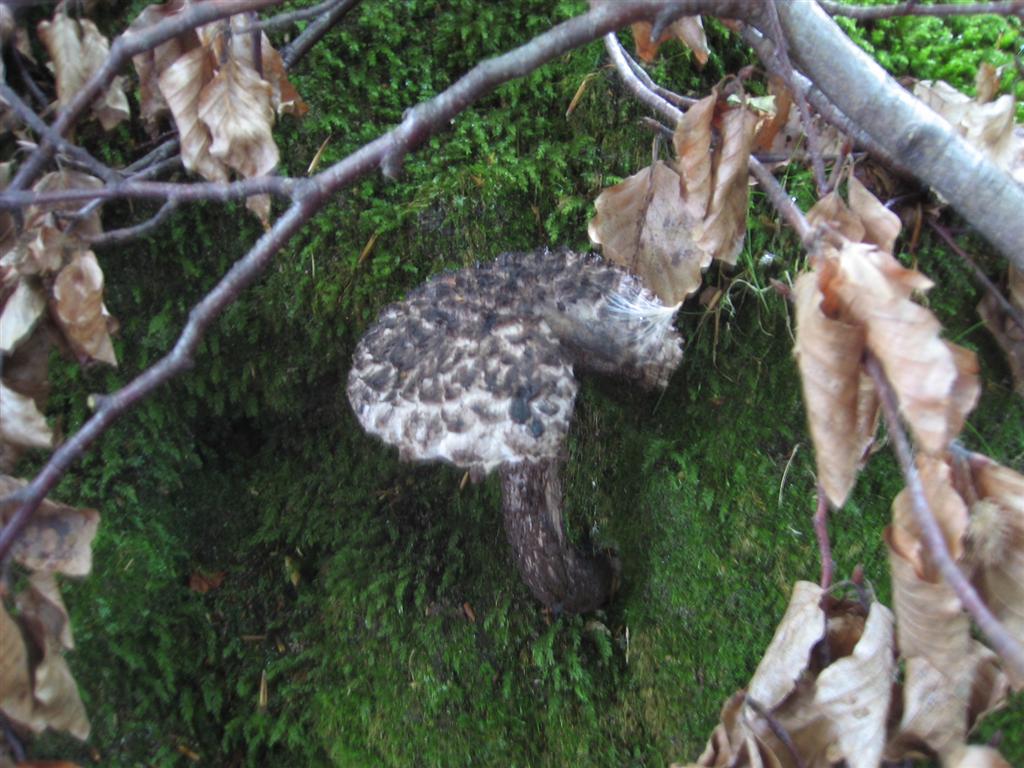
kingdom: Fungi
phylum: Basidiomycota
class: Agaricomycetes
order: Boletales
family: Boletaceae
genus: Strobilomyces
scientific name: Strobilomyces strobilaceus
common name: koglerørhat
